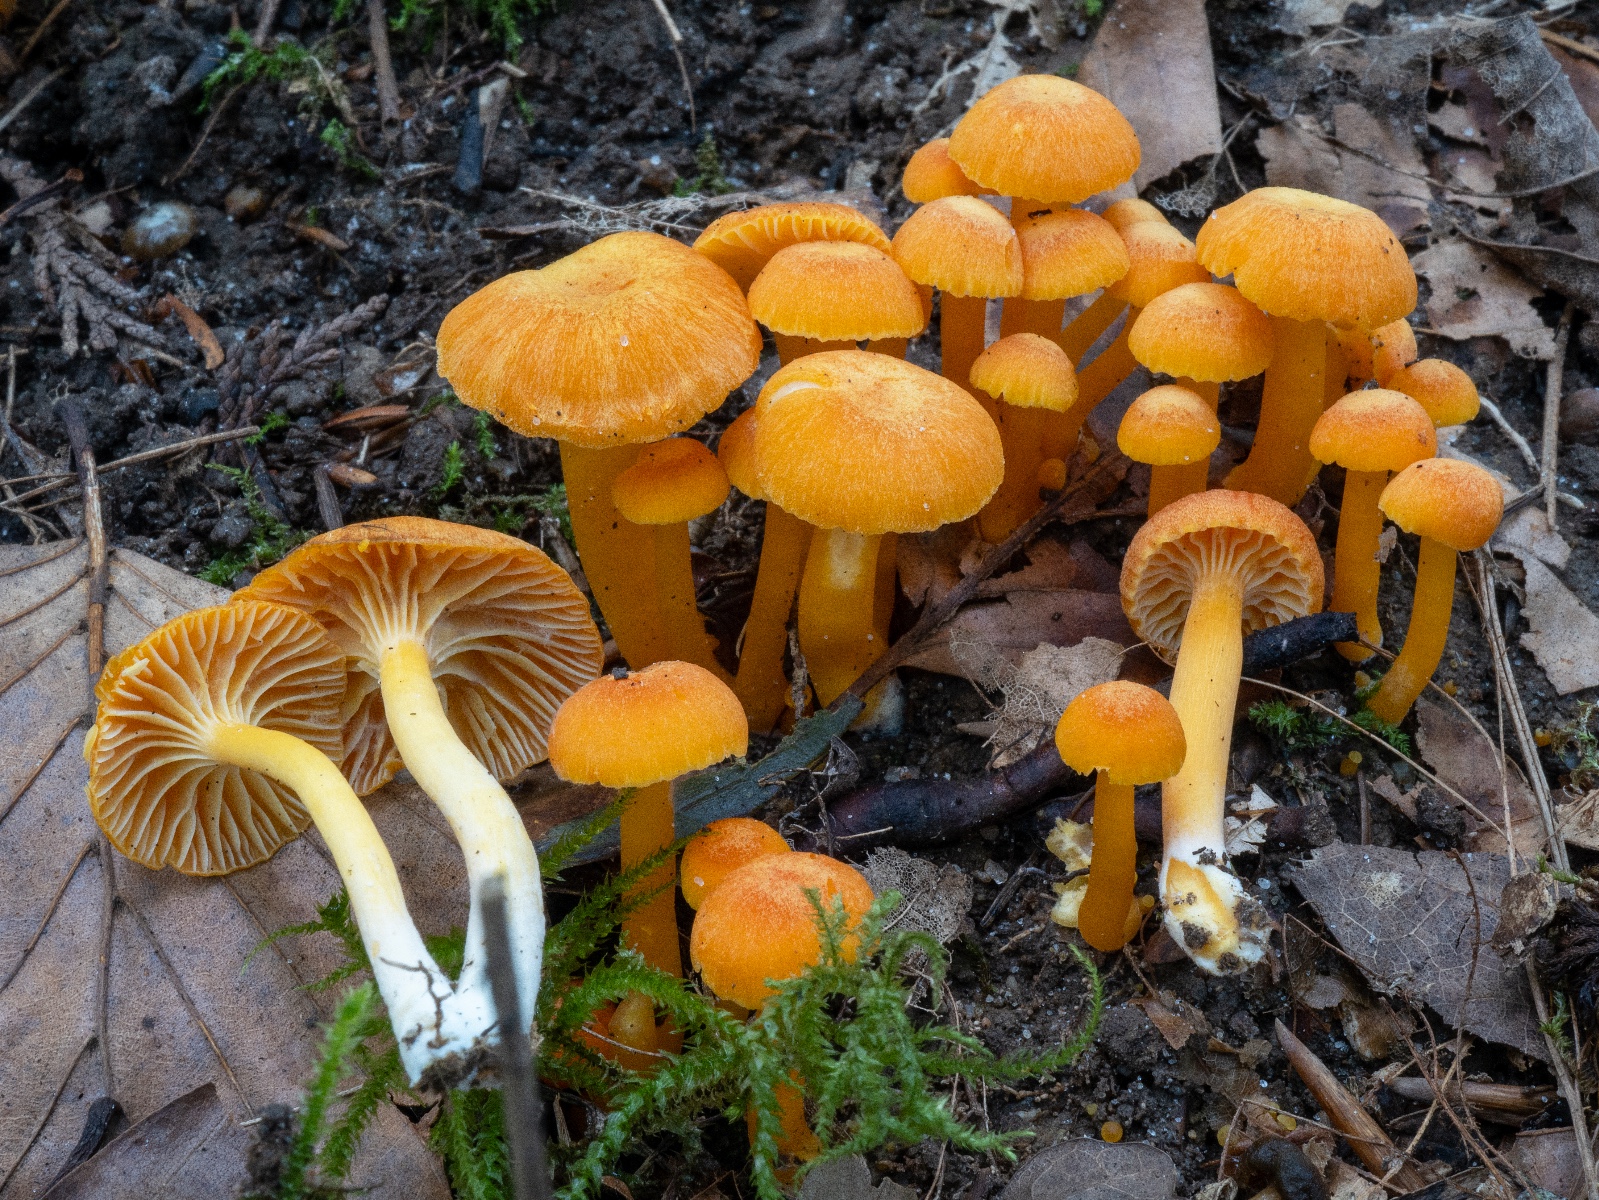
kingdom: Fungi
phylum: Basidiomycota
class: Agaricomycetes
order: Agaricales
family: Hygrophoraceae
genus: Hygrocybe
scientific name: Hygrocybe reidii
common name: honning-vokshat
